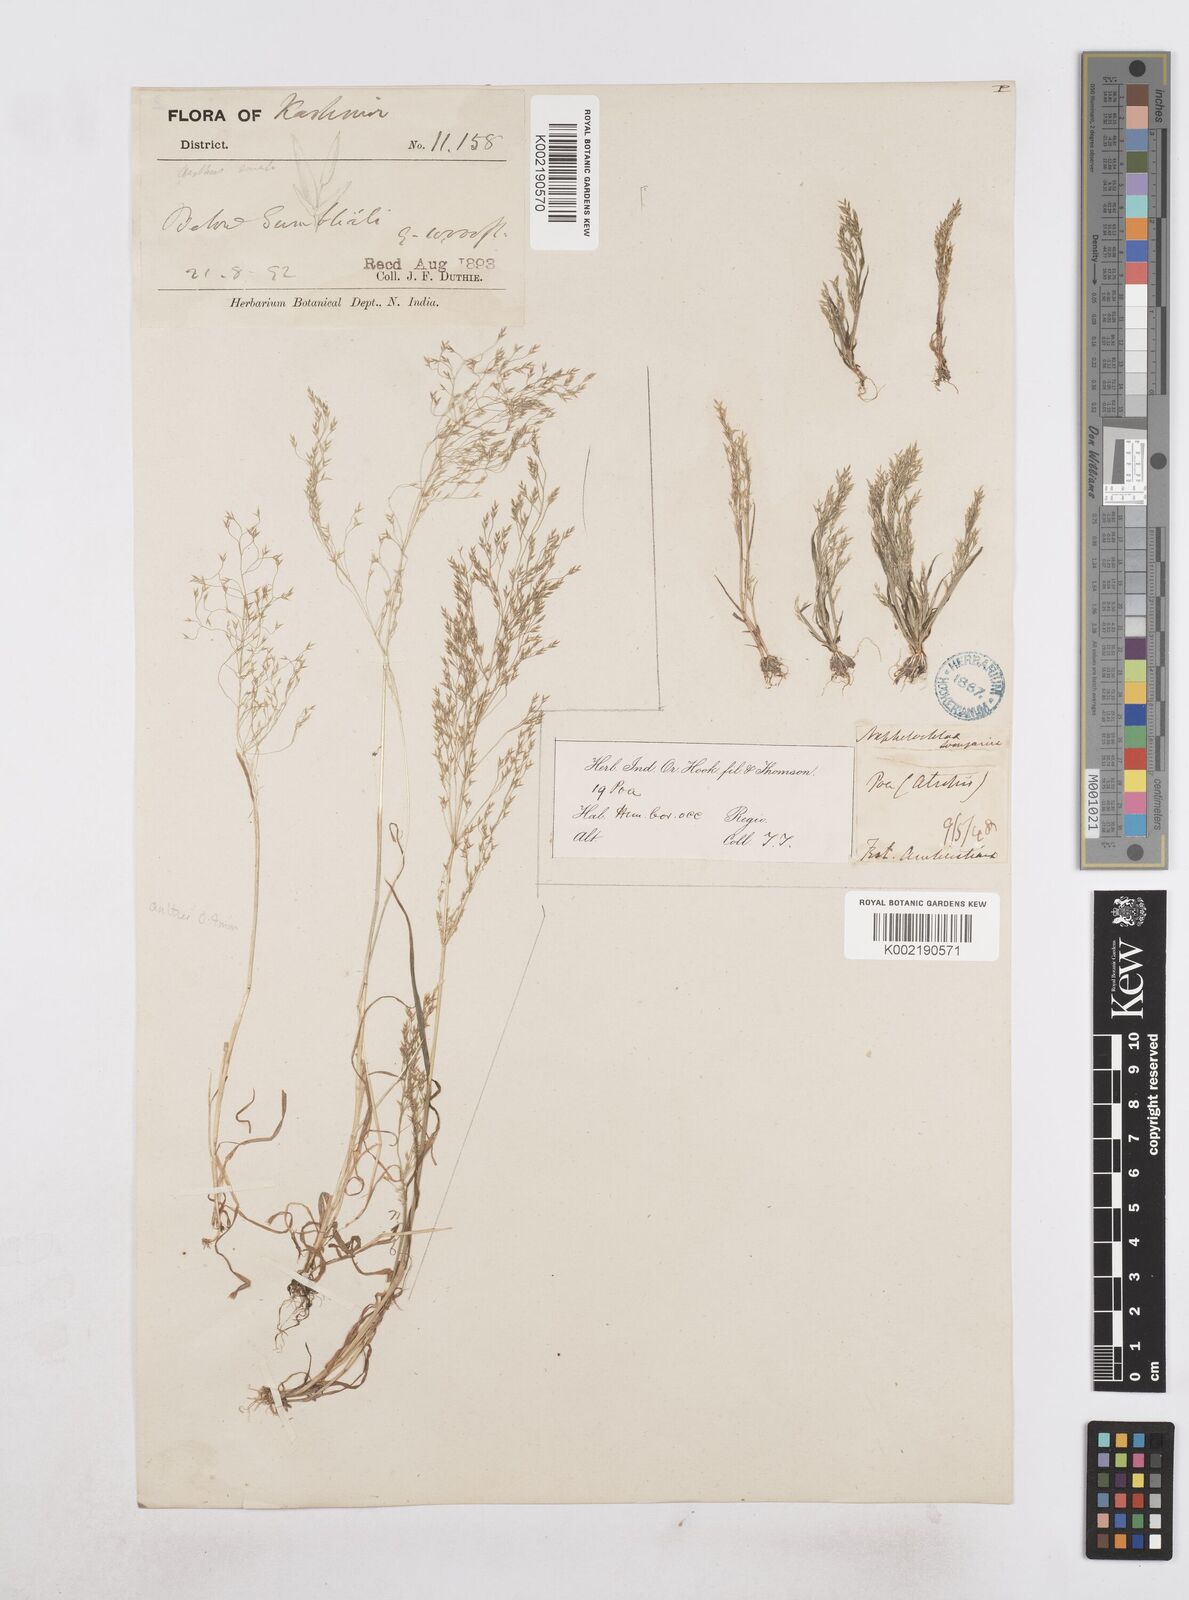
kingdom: Plantae
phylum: Tracheophyta
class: Liliopsida
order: Poales
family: Poaceae
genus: Poa
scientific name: Poa diaphora
